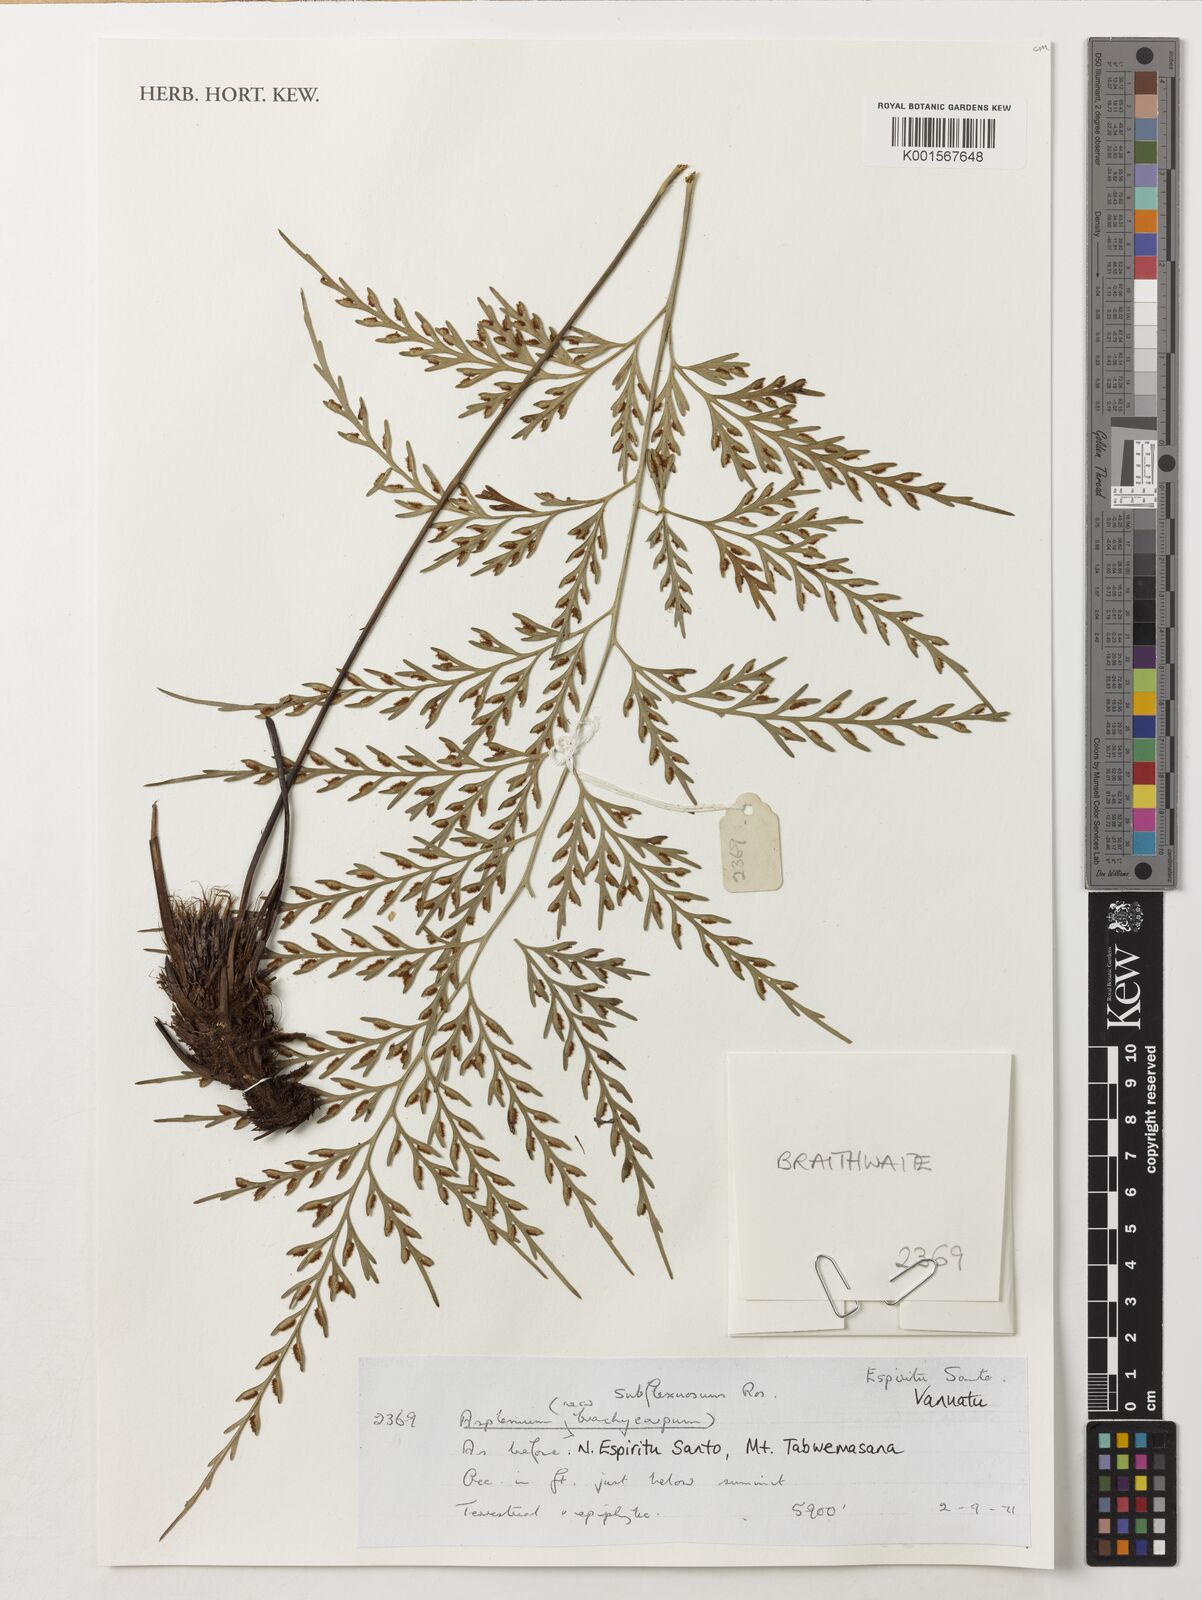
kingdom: Plantae
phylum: Tracheophyta
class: Polypodiopsida
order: Polypodiales
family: Aspleniaceae
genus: Asplenium
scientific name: Asplenium subflexuosum
